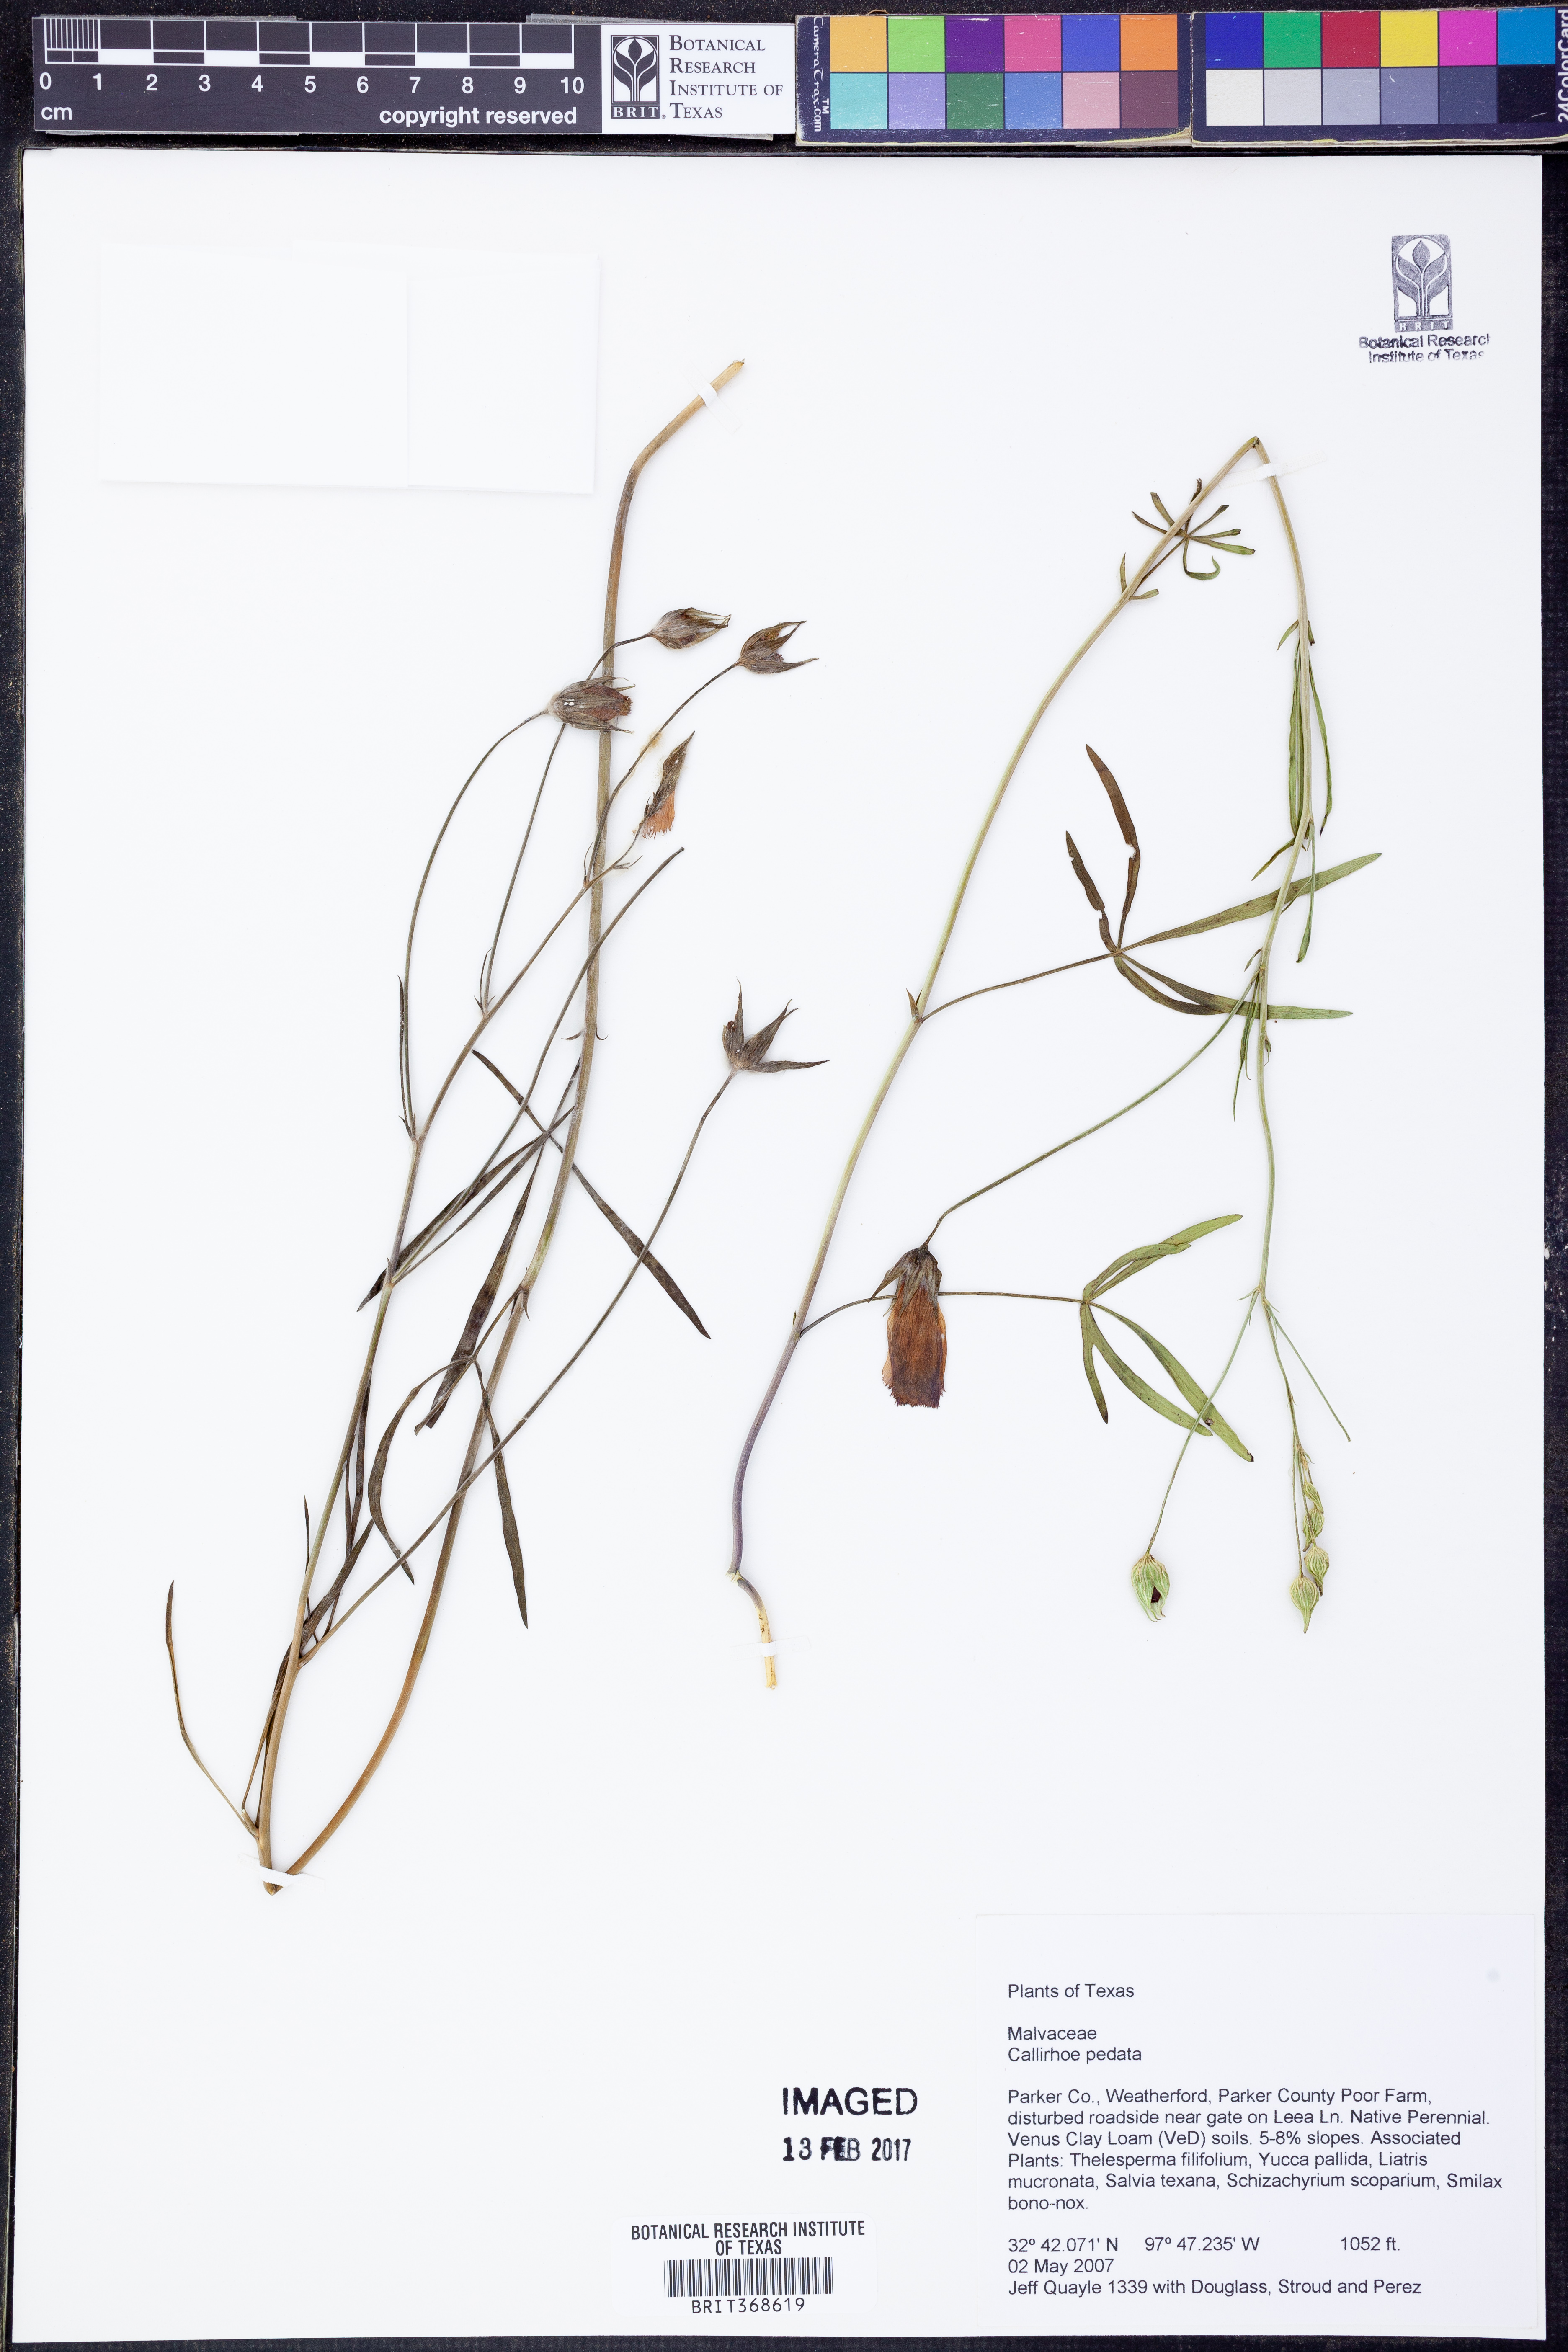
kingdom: Plantae
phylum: Tracheophyta
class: Magnoliopsida
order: Malvales
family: Malvaceae
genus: Callirhoe
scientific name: Callirhoe pedata
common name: Finger poppy-mallow
